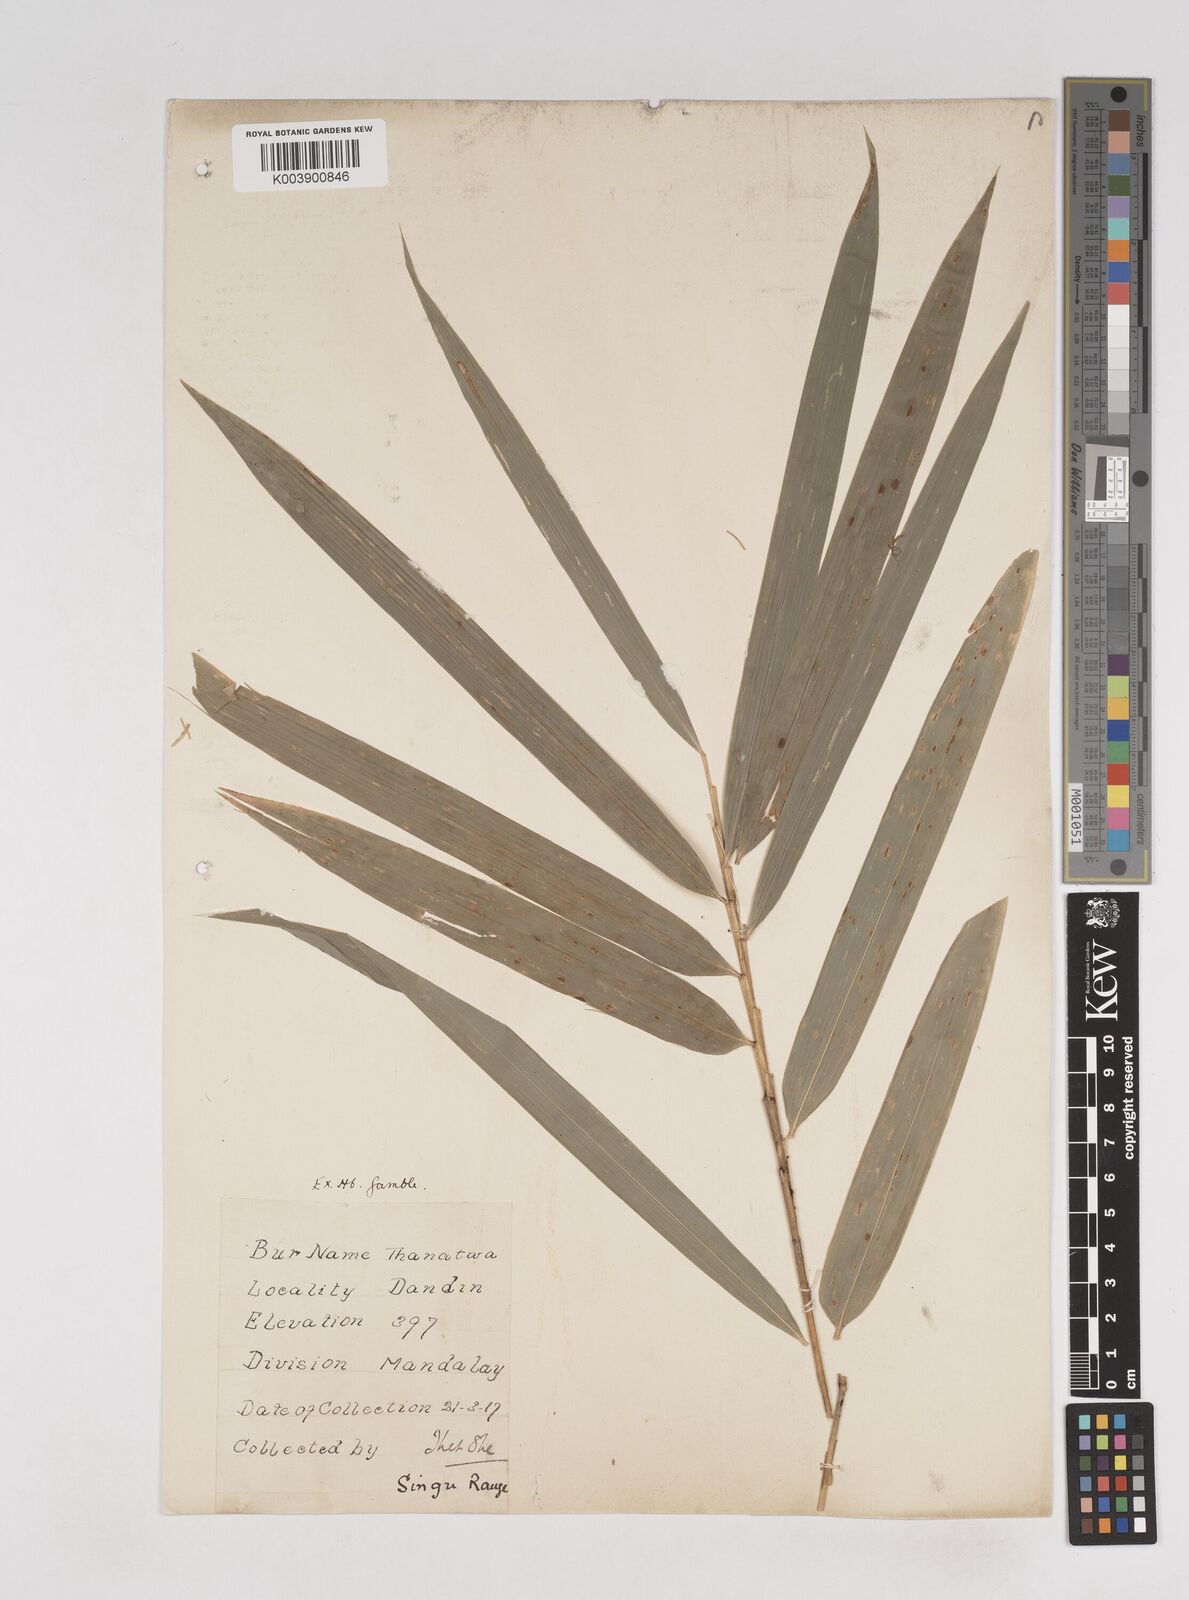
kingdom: Plantae
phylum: Tracheophyta
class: Liliopsida
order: Poales
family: Poaceae
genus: Thyrsostachys
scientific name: Thyrsostachys oliveri
